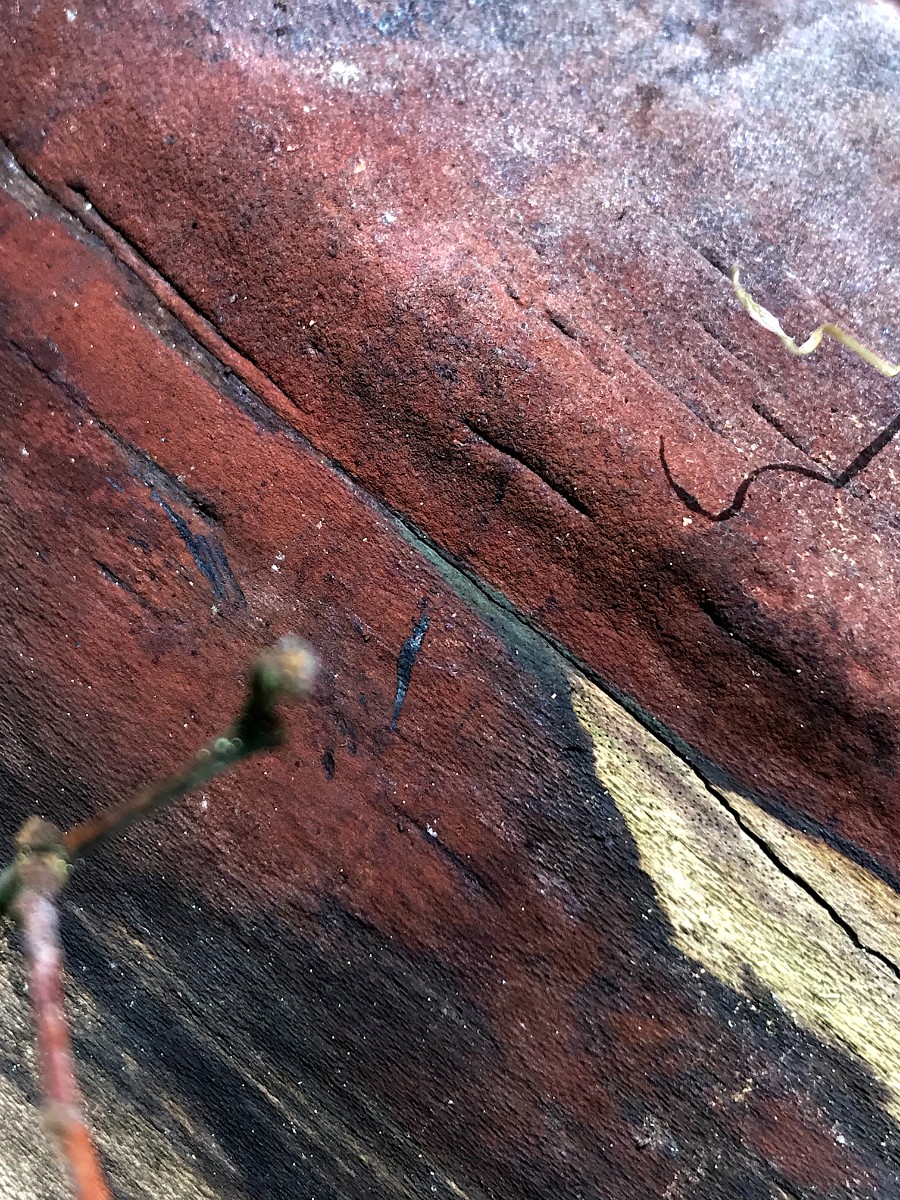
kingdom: Fungi
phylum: Ascomycota
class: Sordariomycetes
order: Xylariales
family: Hypoxylaceae
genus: Hypoxylon
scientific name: Hypoxylon petriniae
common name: nedsænket kulbær
